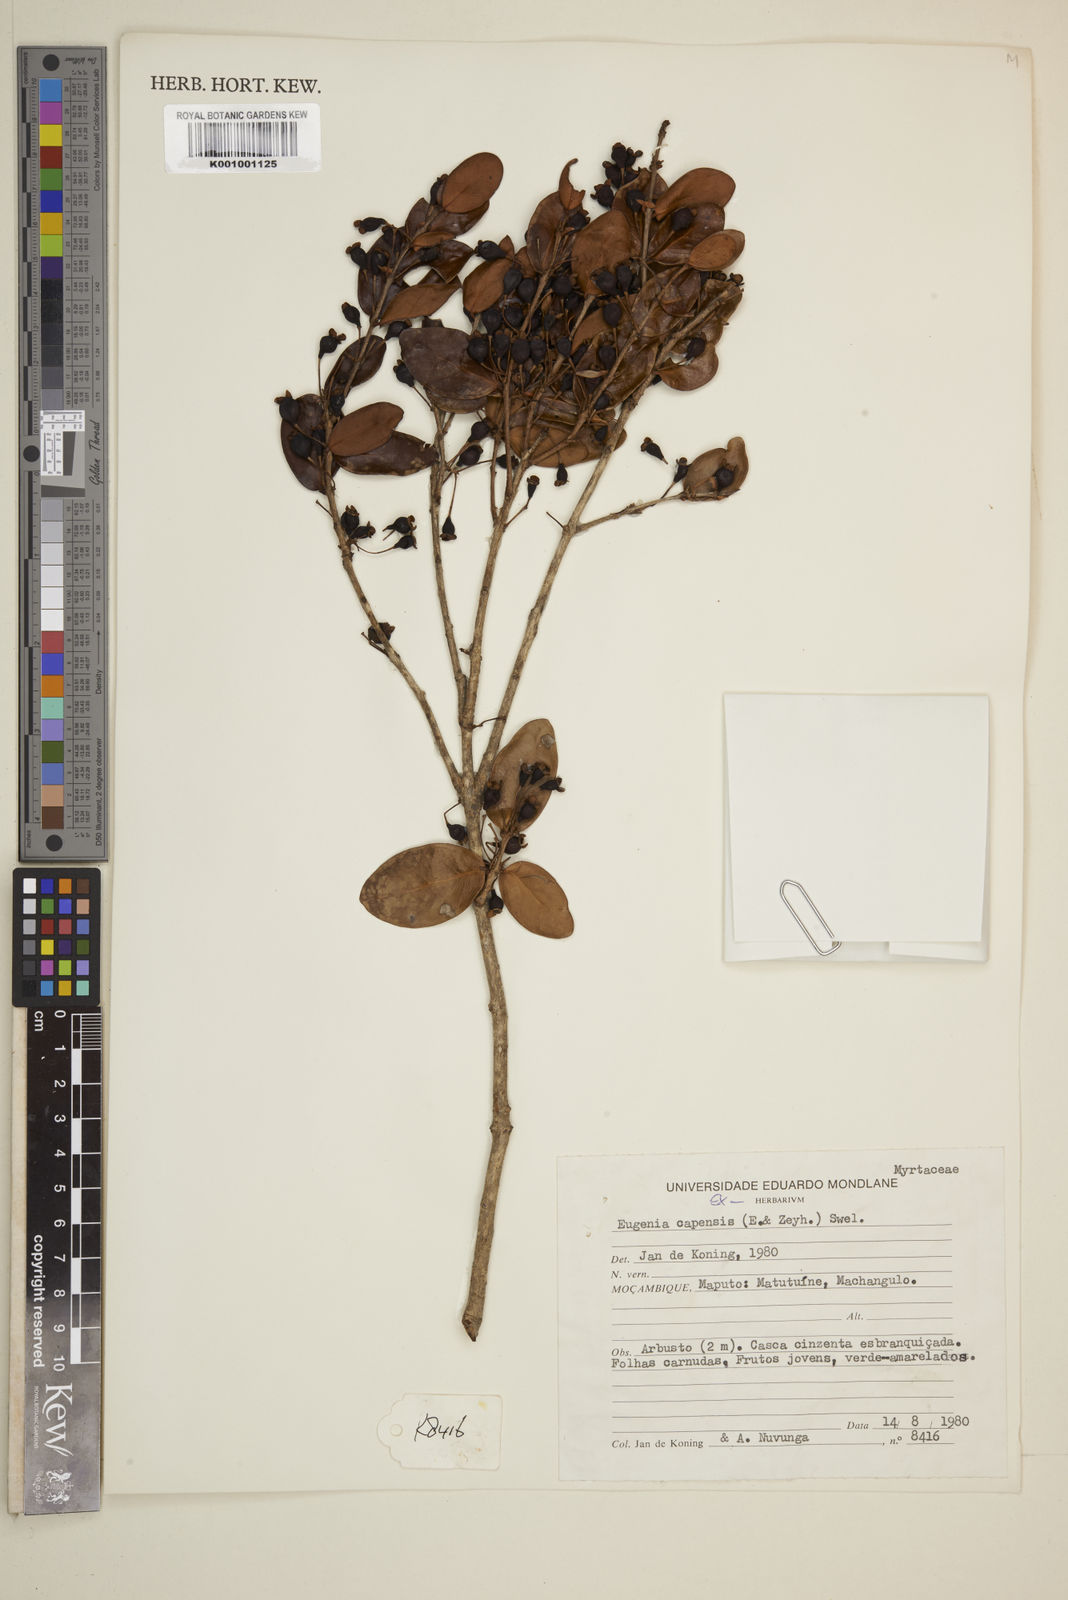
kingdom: Plantae
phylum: Tracheophyta
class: Magnoliopsida
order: Myrtales
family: Myrtaceae
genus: Eugenia
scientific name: Eugenia capensis
